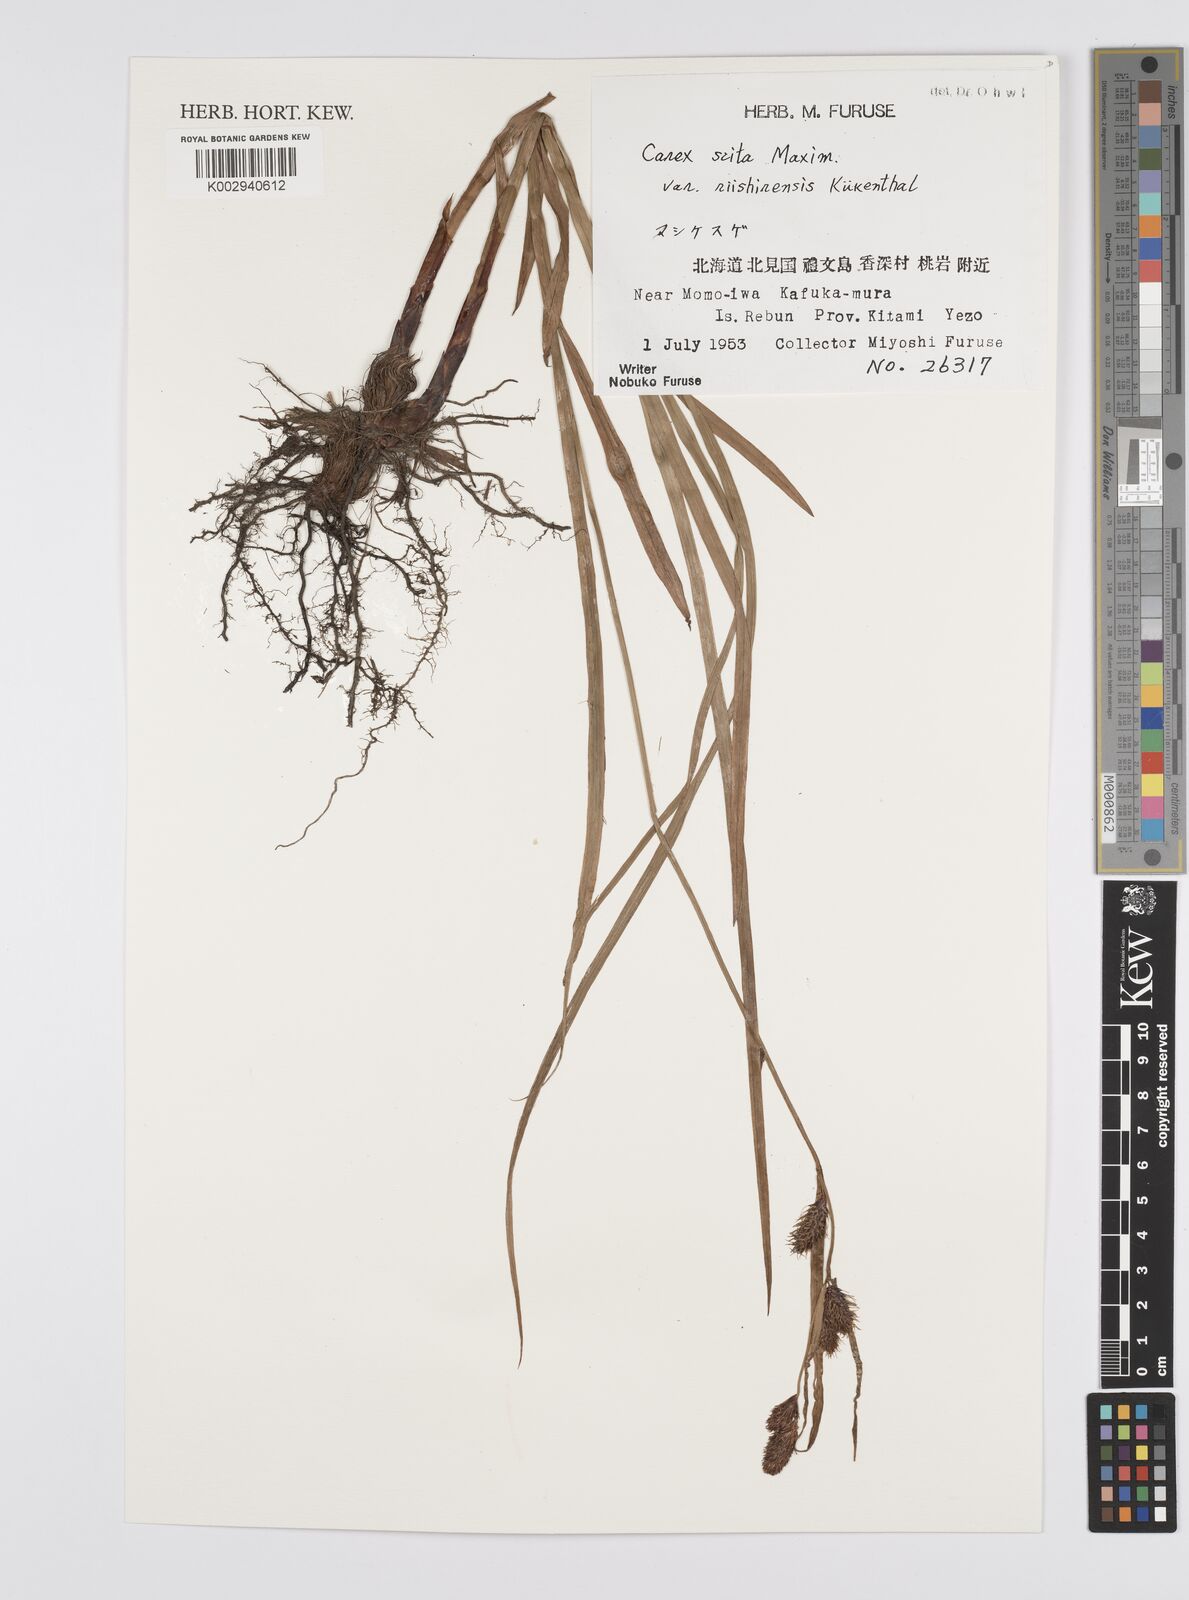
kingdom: Plantae
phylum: Tracheophyta
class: Liliopsida
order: Poales
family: Cyperaceae
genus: Carex
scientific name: Carex scita
